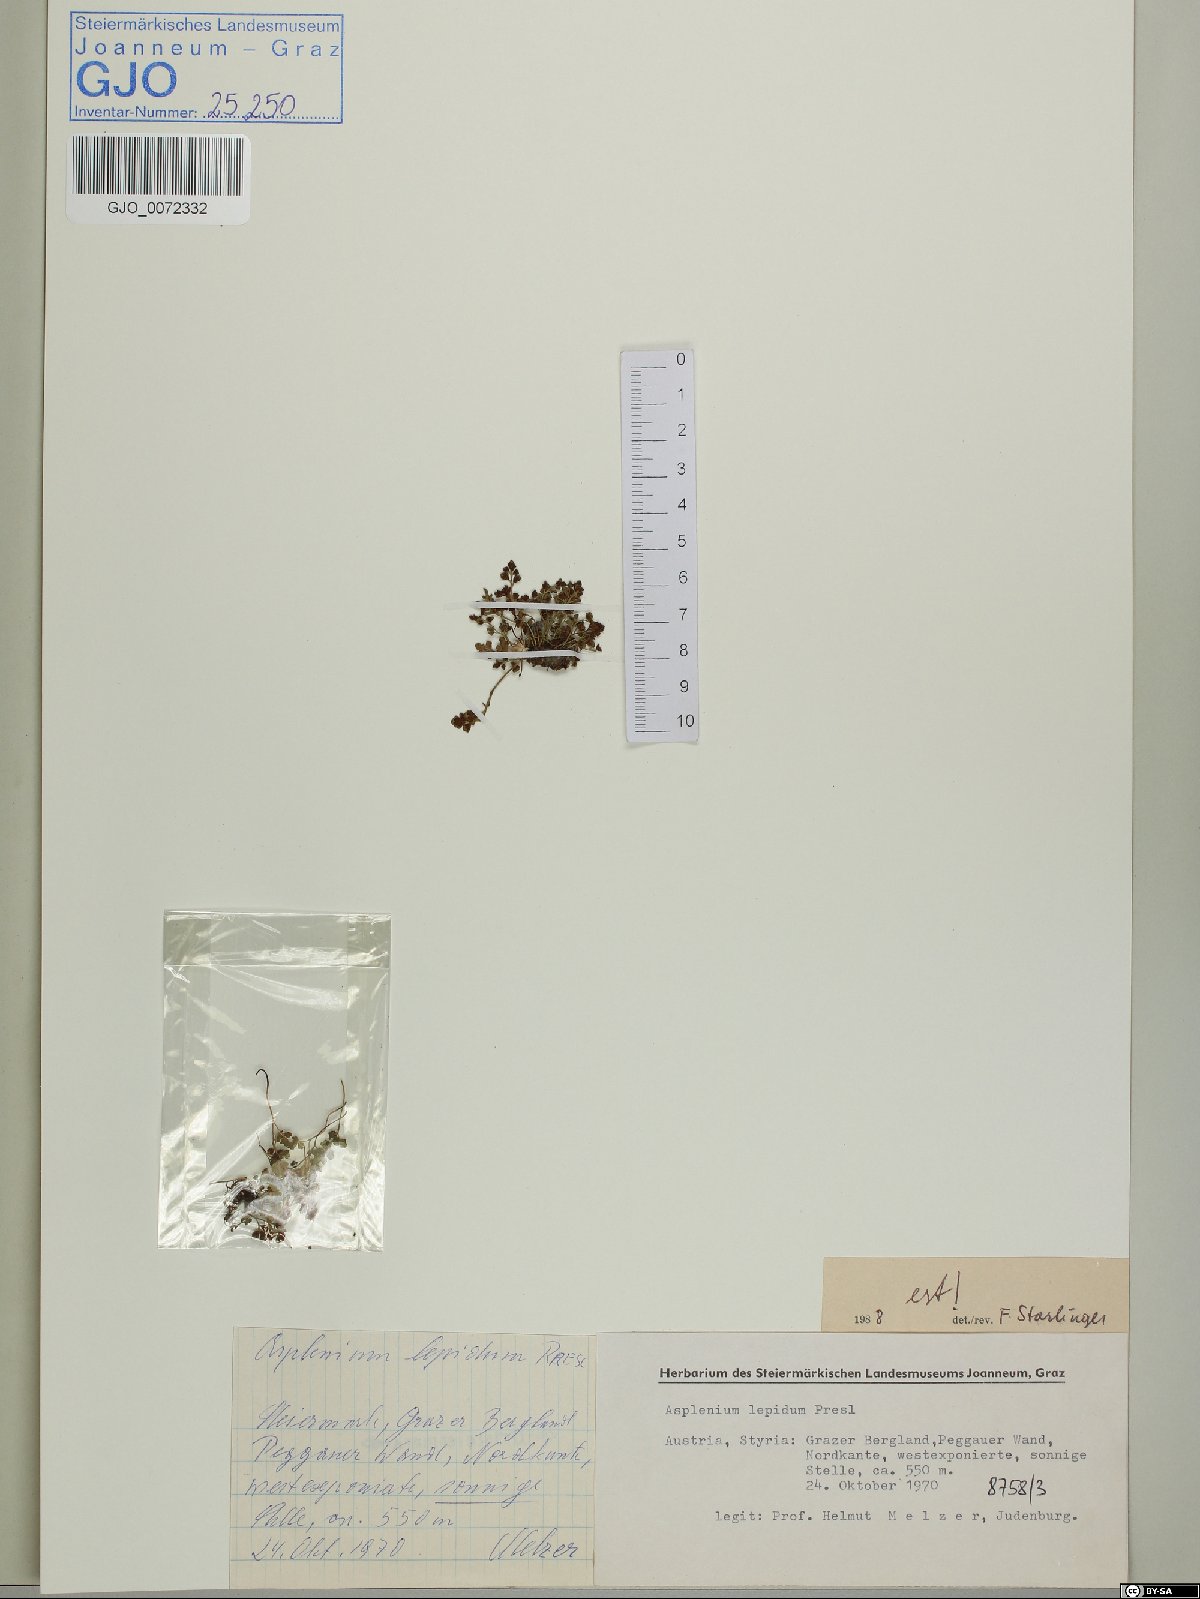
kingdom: Plantae
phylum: Tracheophyta
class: Polypodiopsida
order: Polypodiales
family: Aspleniaceae
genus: Asplenium
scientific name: Asplenium lepidum
